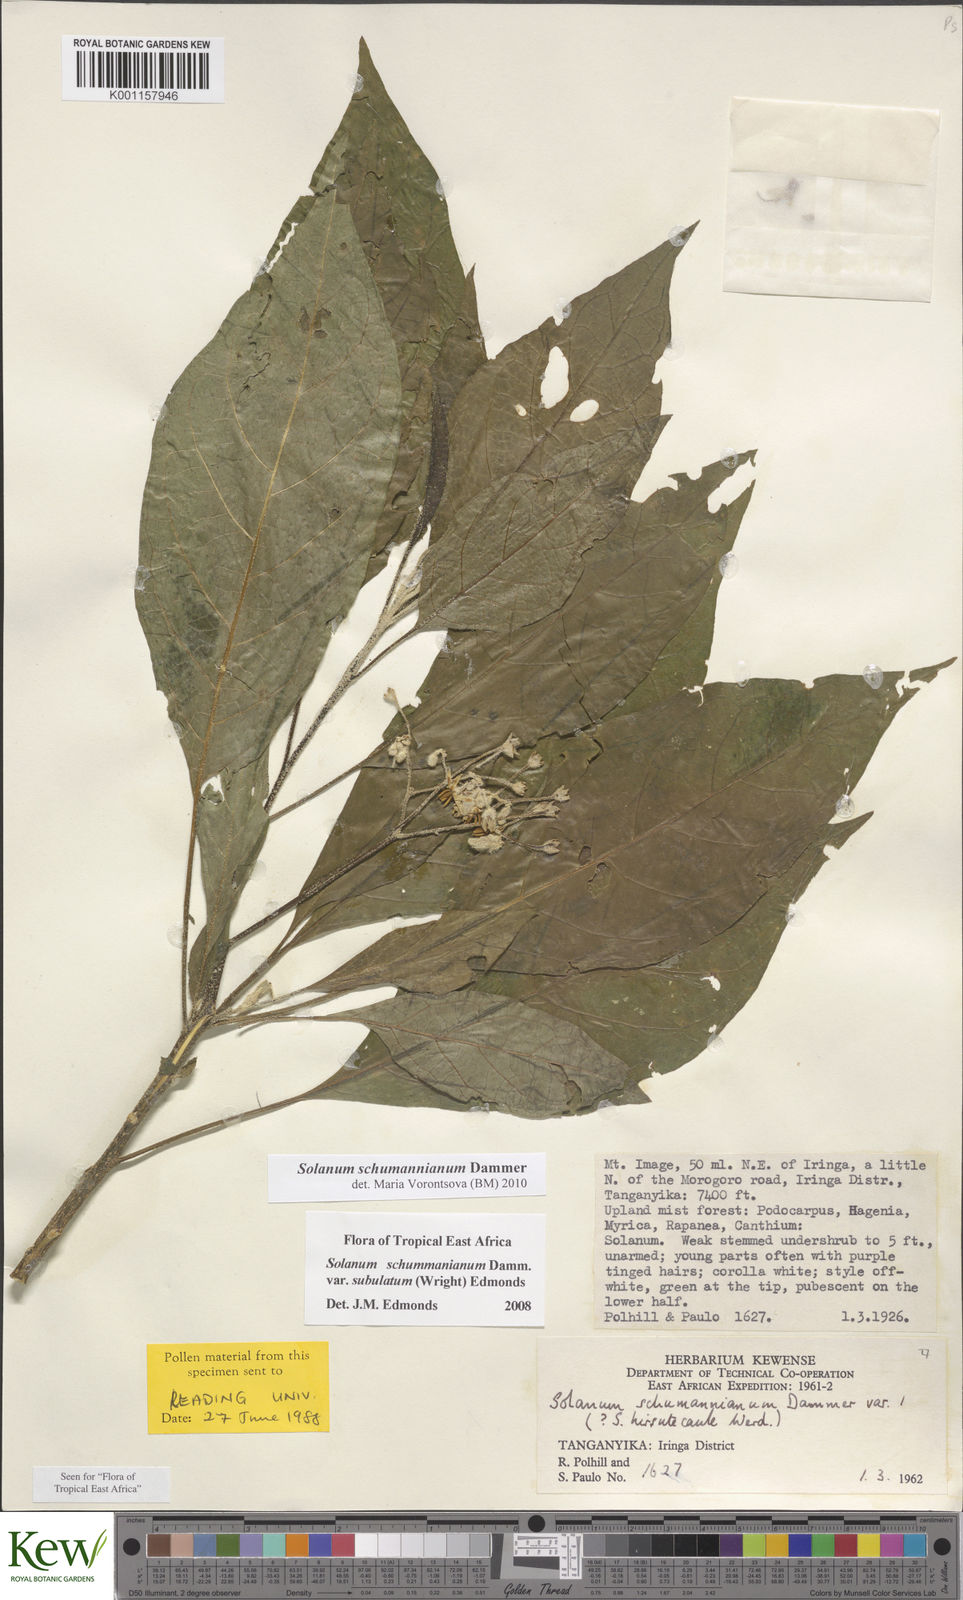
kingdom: Plantae
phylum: Tracheophyta
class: Magnoliopsida
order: Solanales
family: Solanaceae
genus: Solanum
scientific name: Solanum schumannianum
